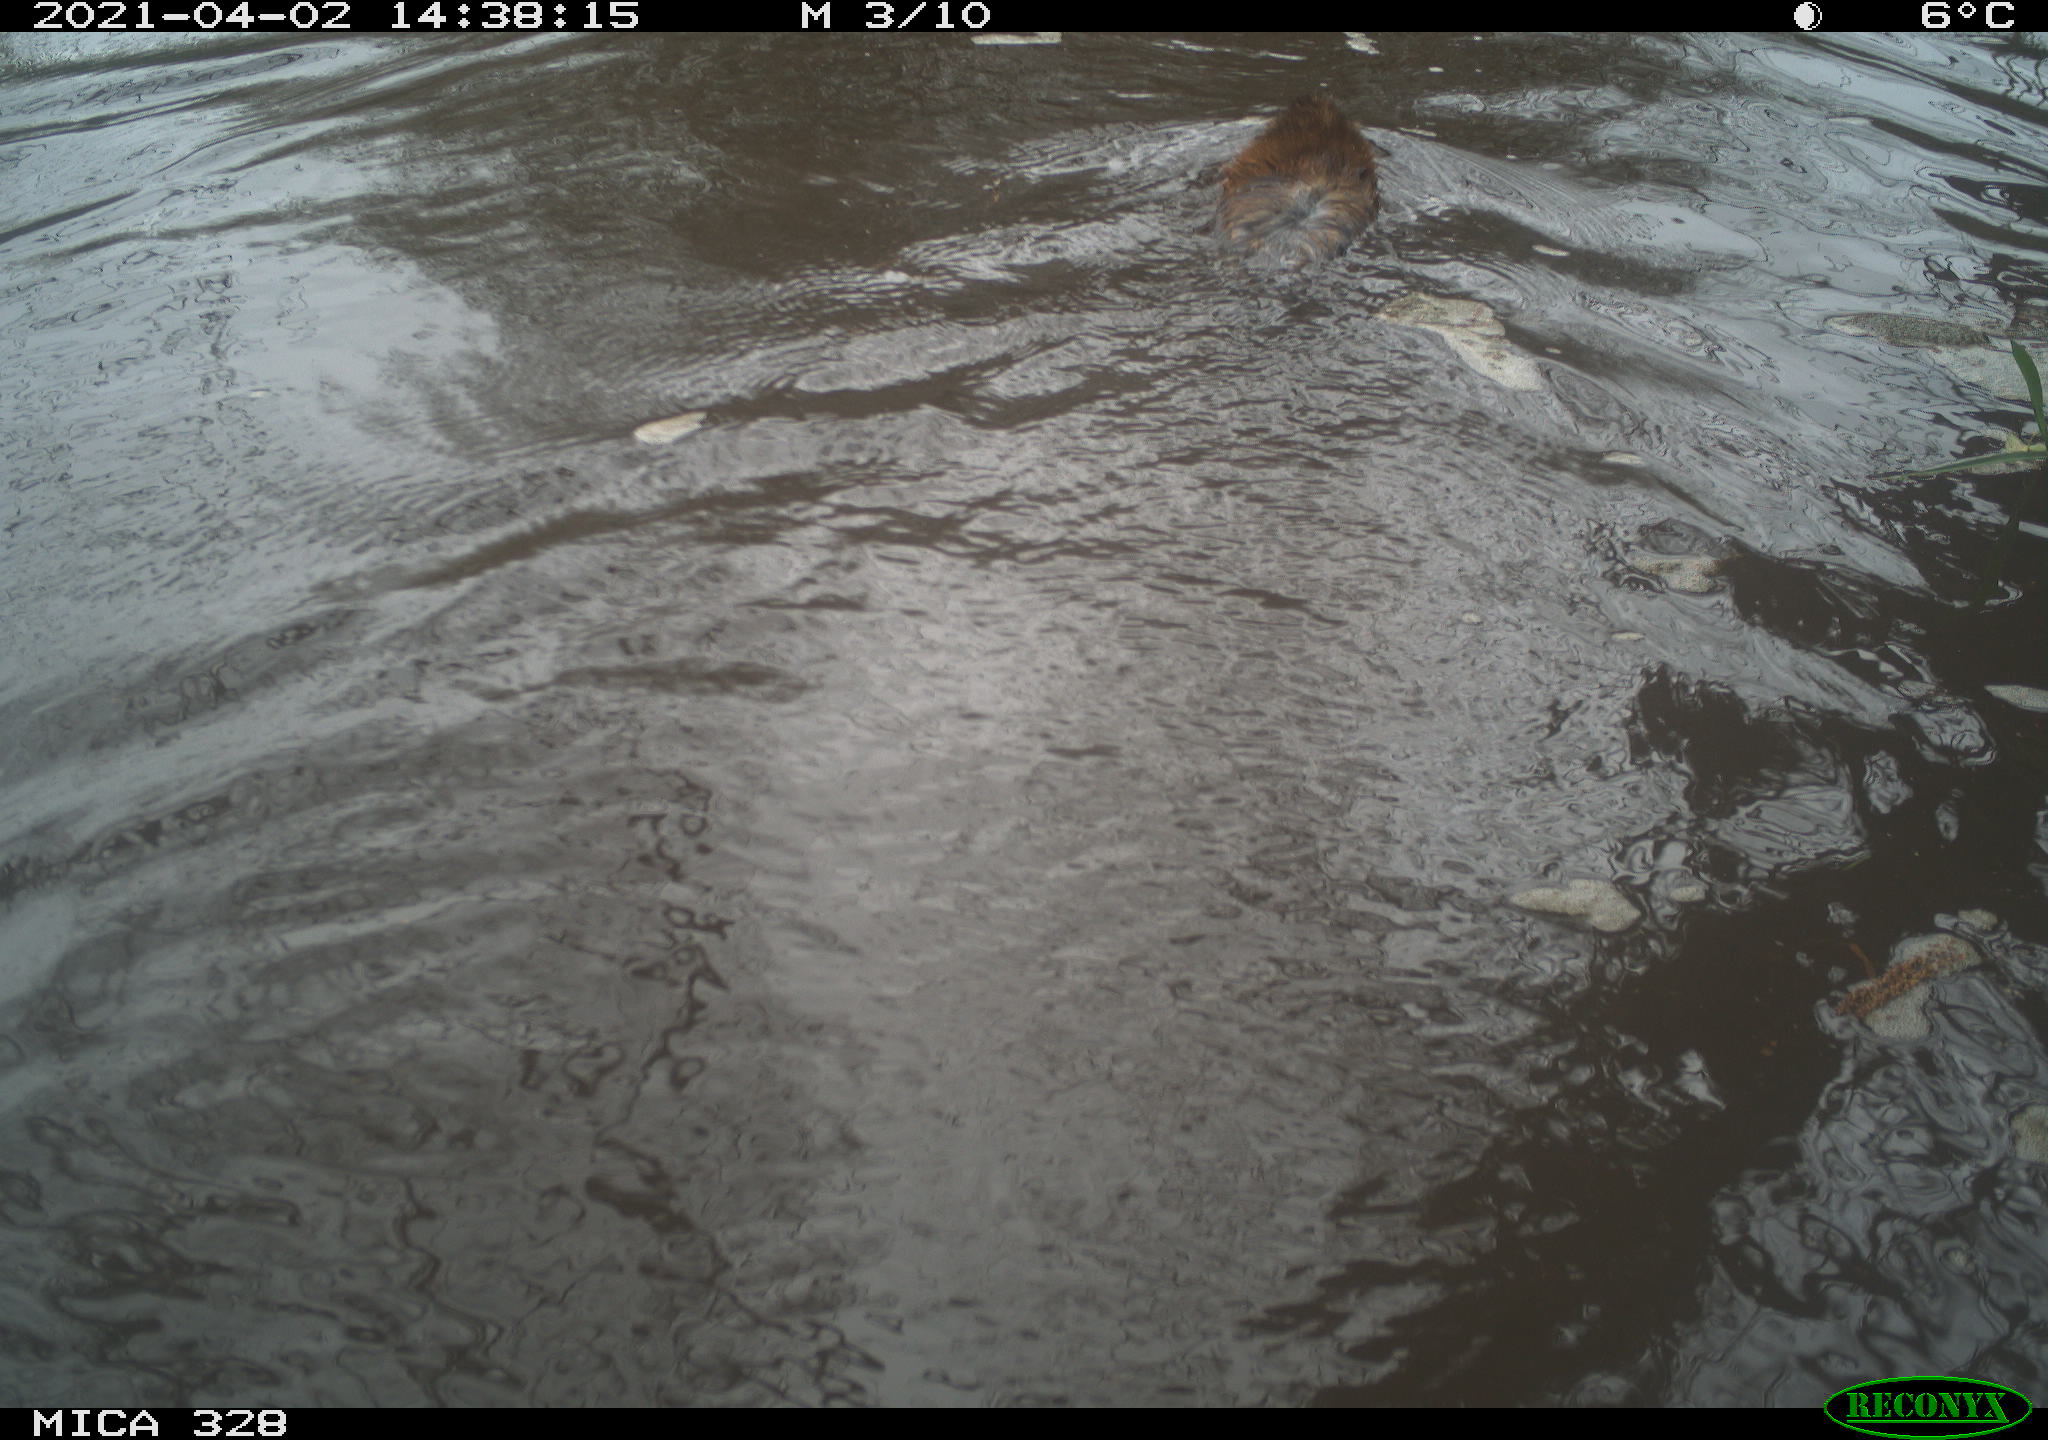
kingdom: Animalia
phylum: Chordata
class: Mammalia
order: Rodentia
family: Cricetidae
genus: Ondatra
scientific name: Ondatra zibethicus
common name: Muskrat
